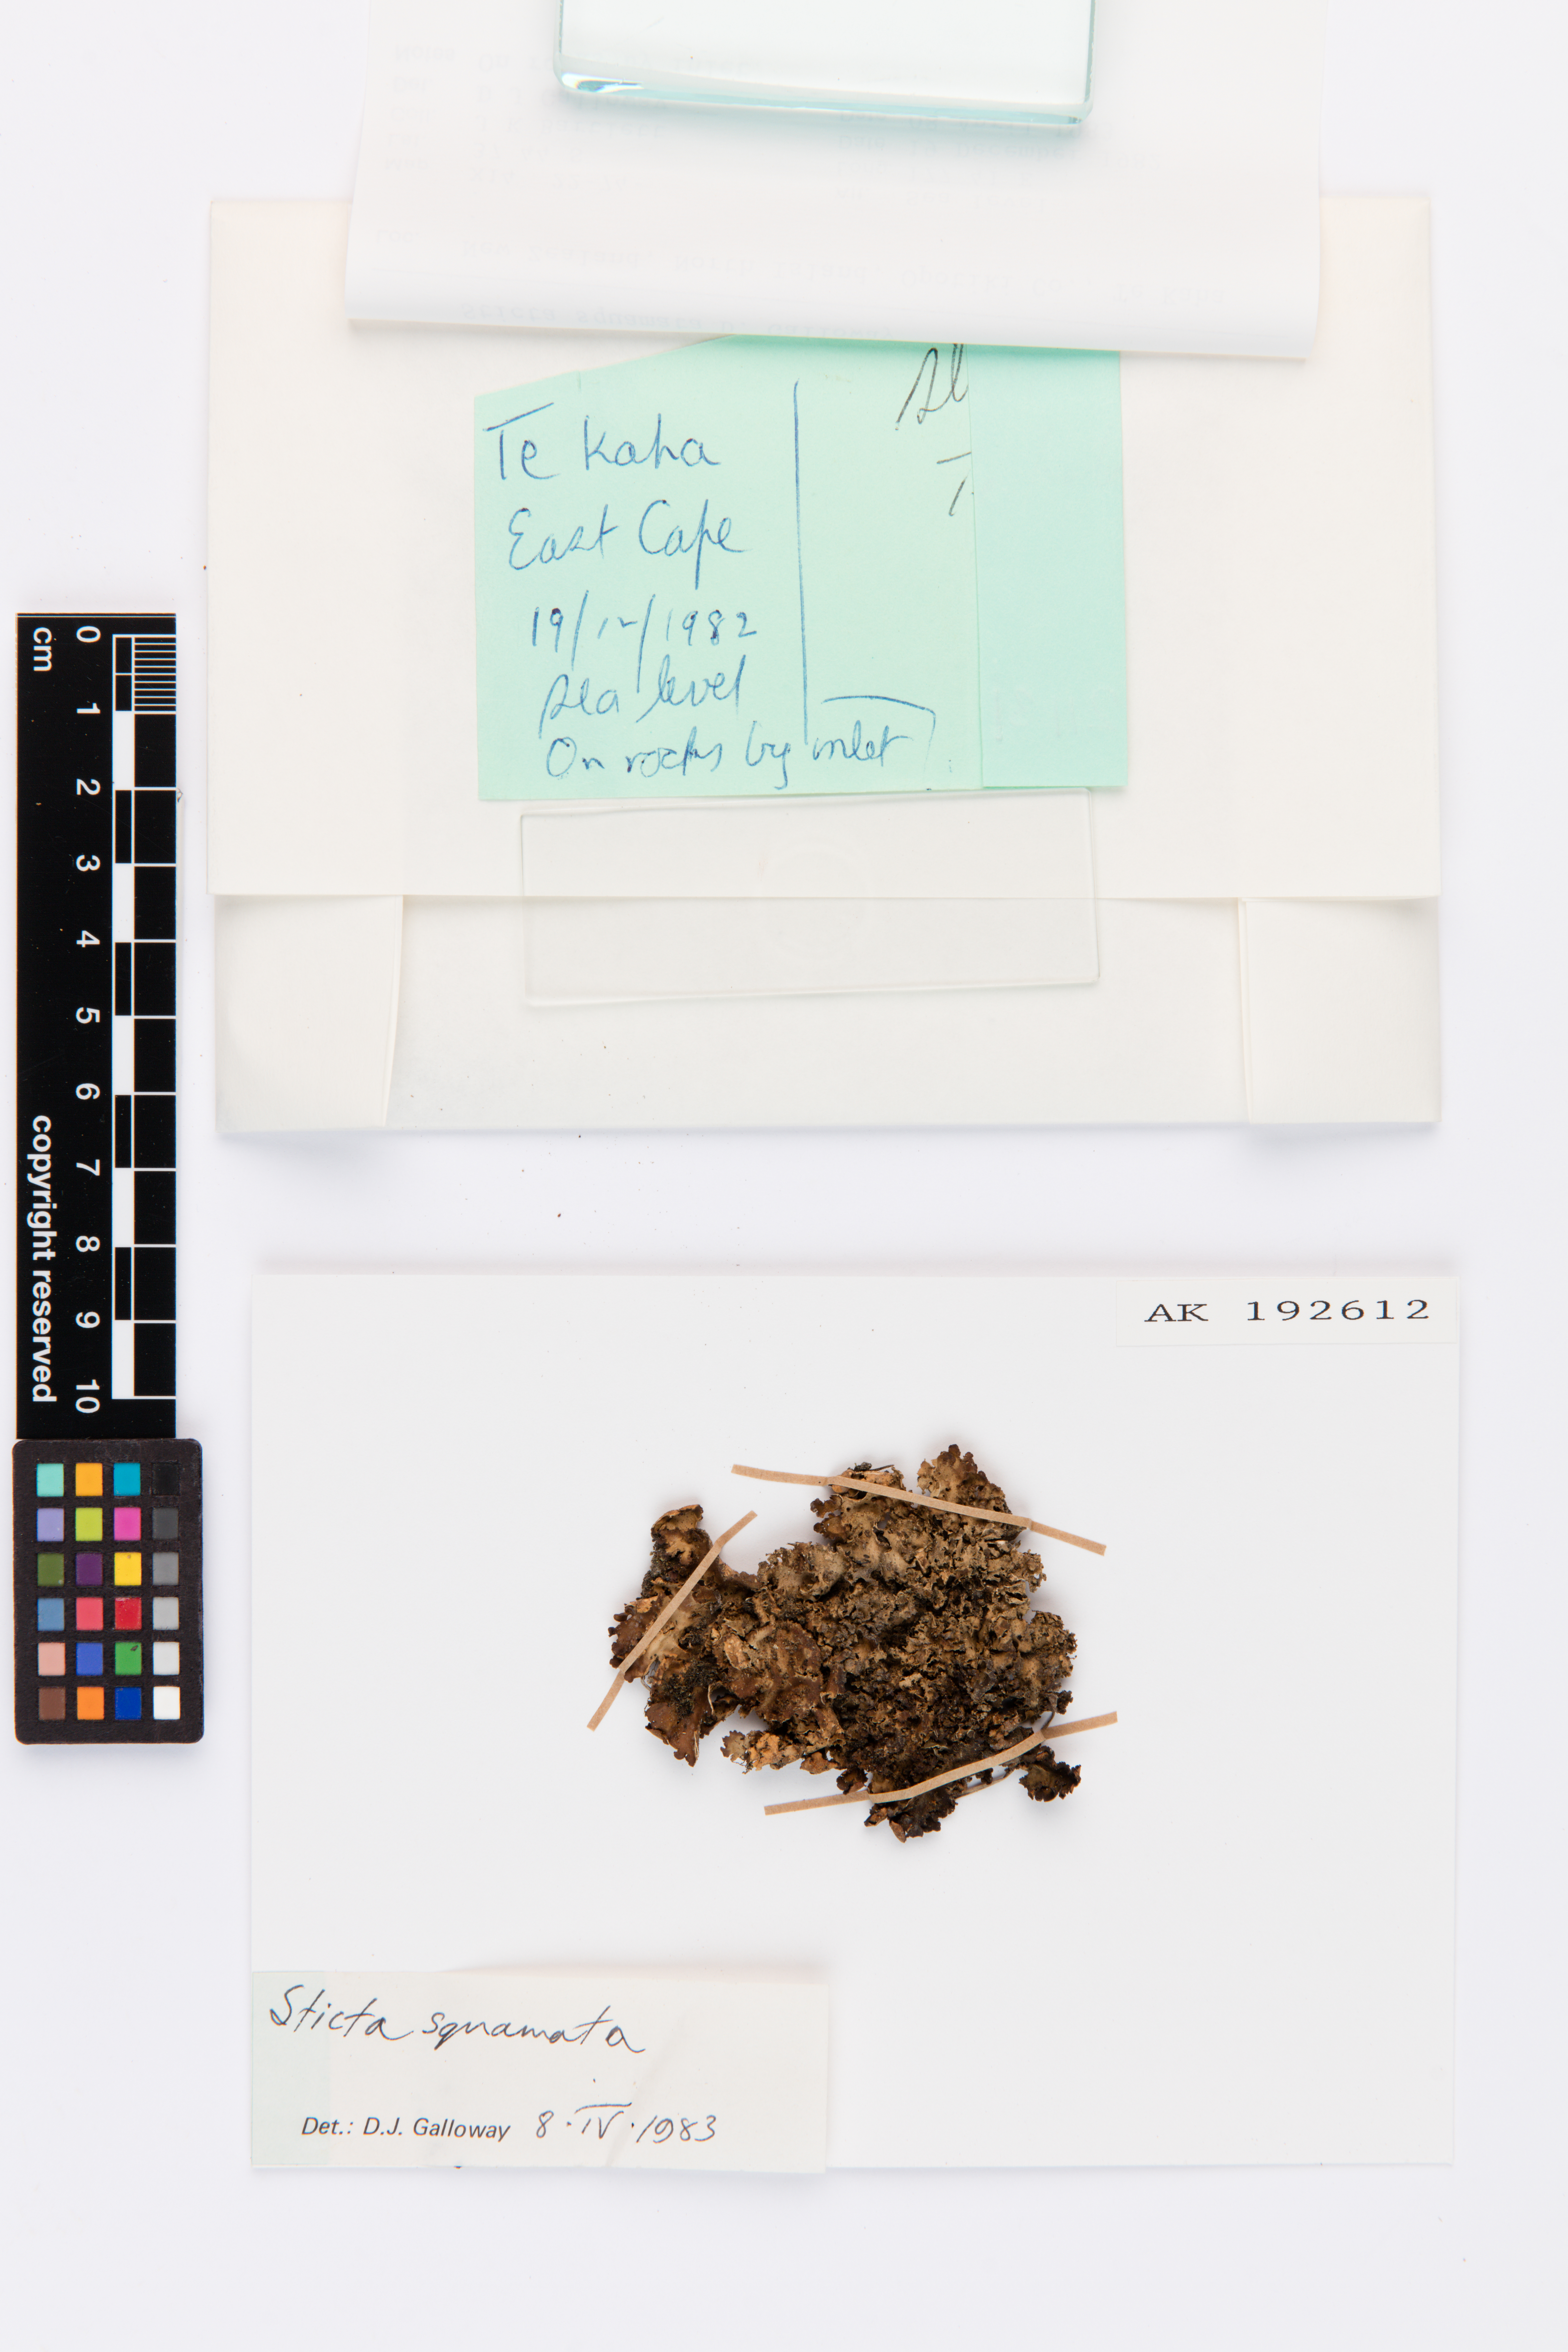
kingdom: Fungi
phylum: Ascomycota
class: Lecanoromycetes
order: Peltigerales
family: Lobariaceae
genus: Sticta
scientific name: Sticta squamata
